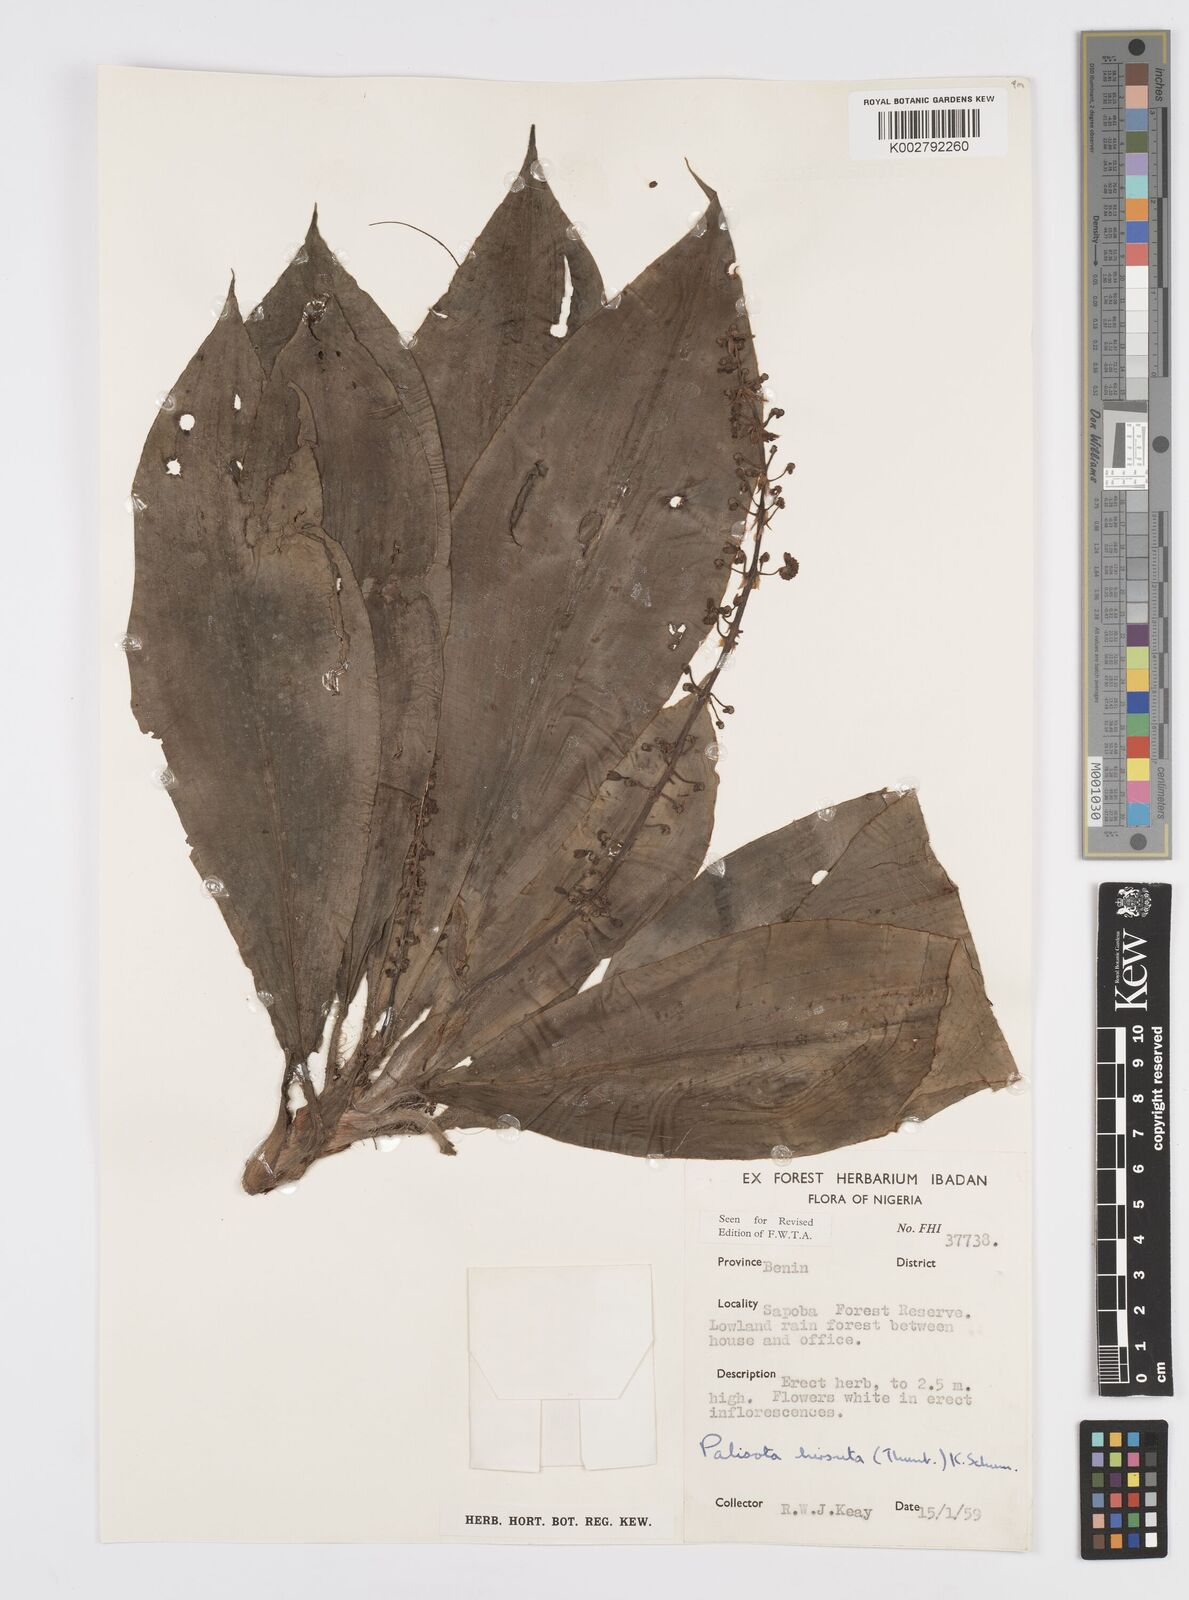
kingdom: Plantae
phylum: Tracheophyta
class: Liliopsida
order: Commelinales
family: Commelinaceae
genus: Palisota
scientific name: Palisota hirsuta
